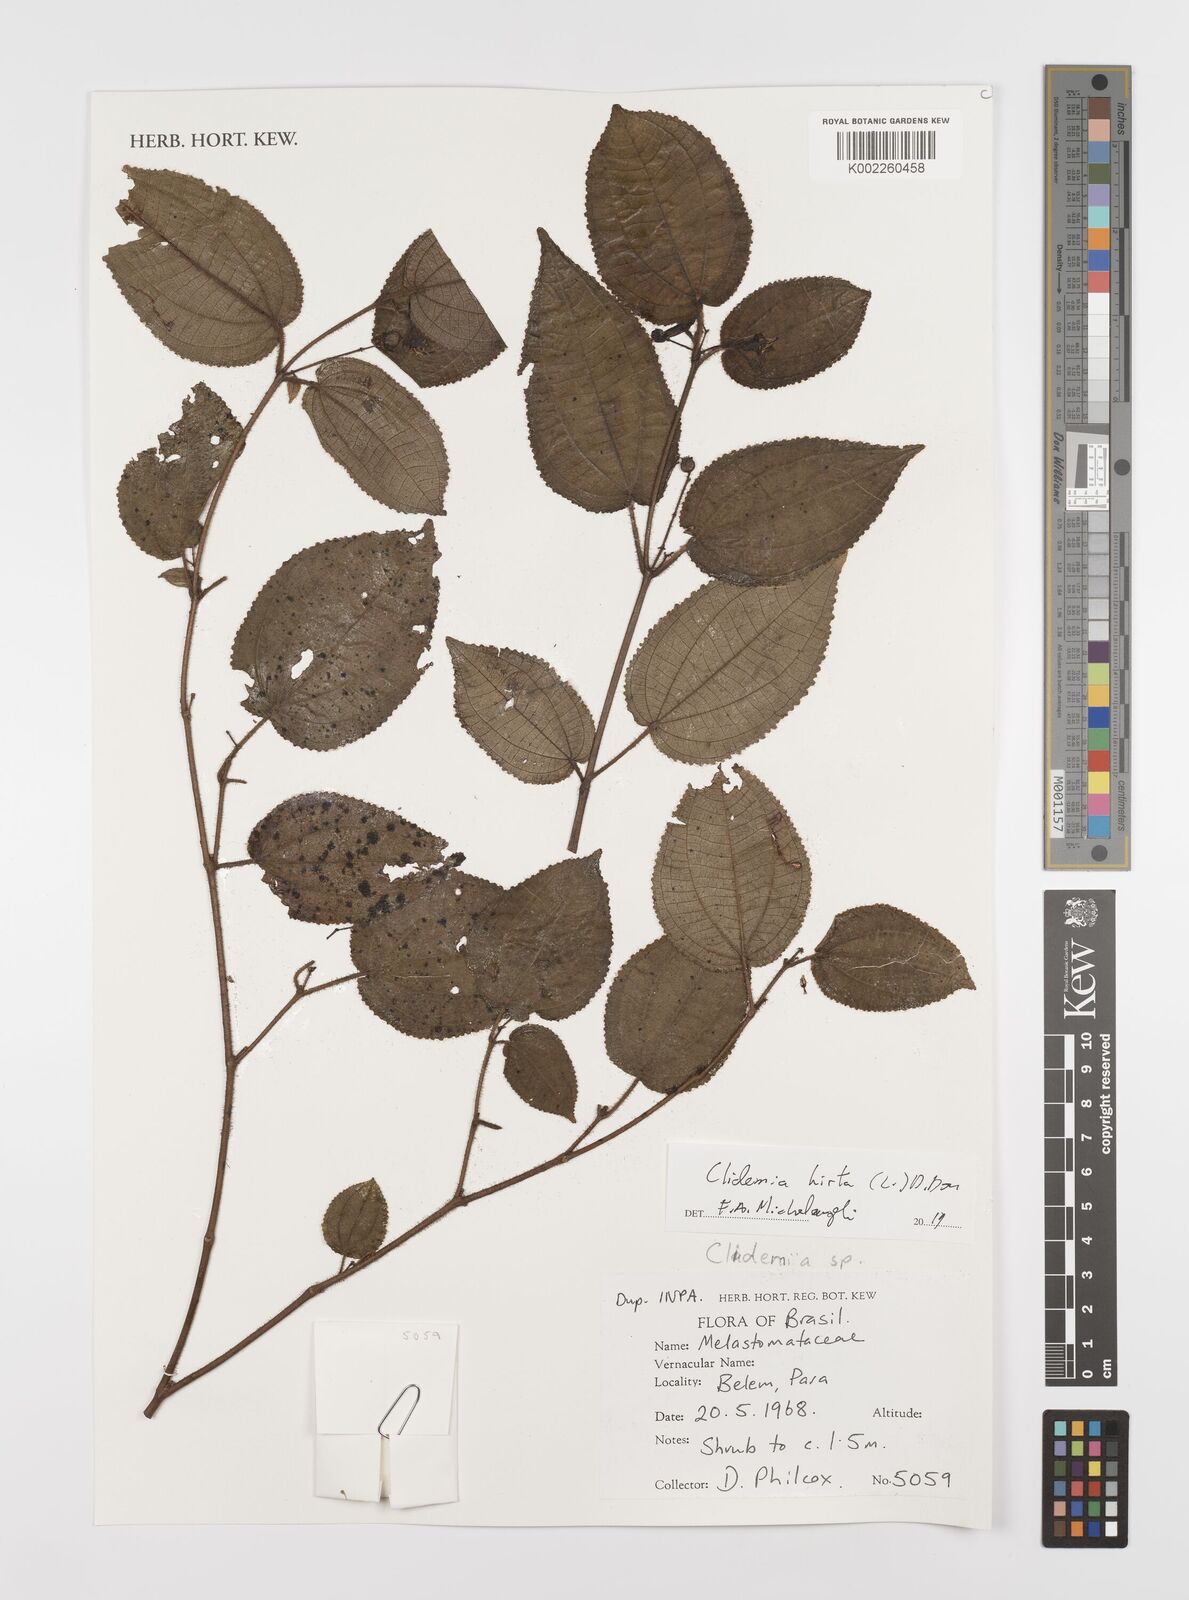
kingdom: Plantae
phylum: Tracheophyta
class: Magnoliopsida
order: Myrtales
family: Melastomataceae
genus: Miconia
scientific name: Miconia crenata
